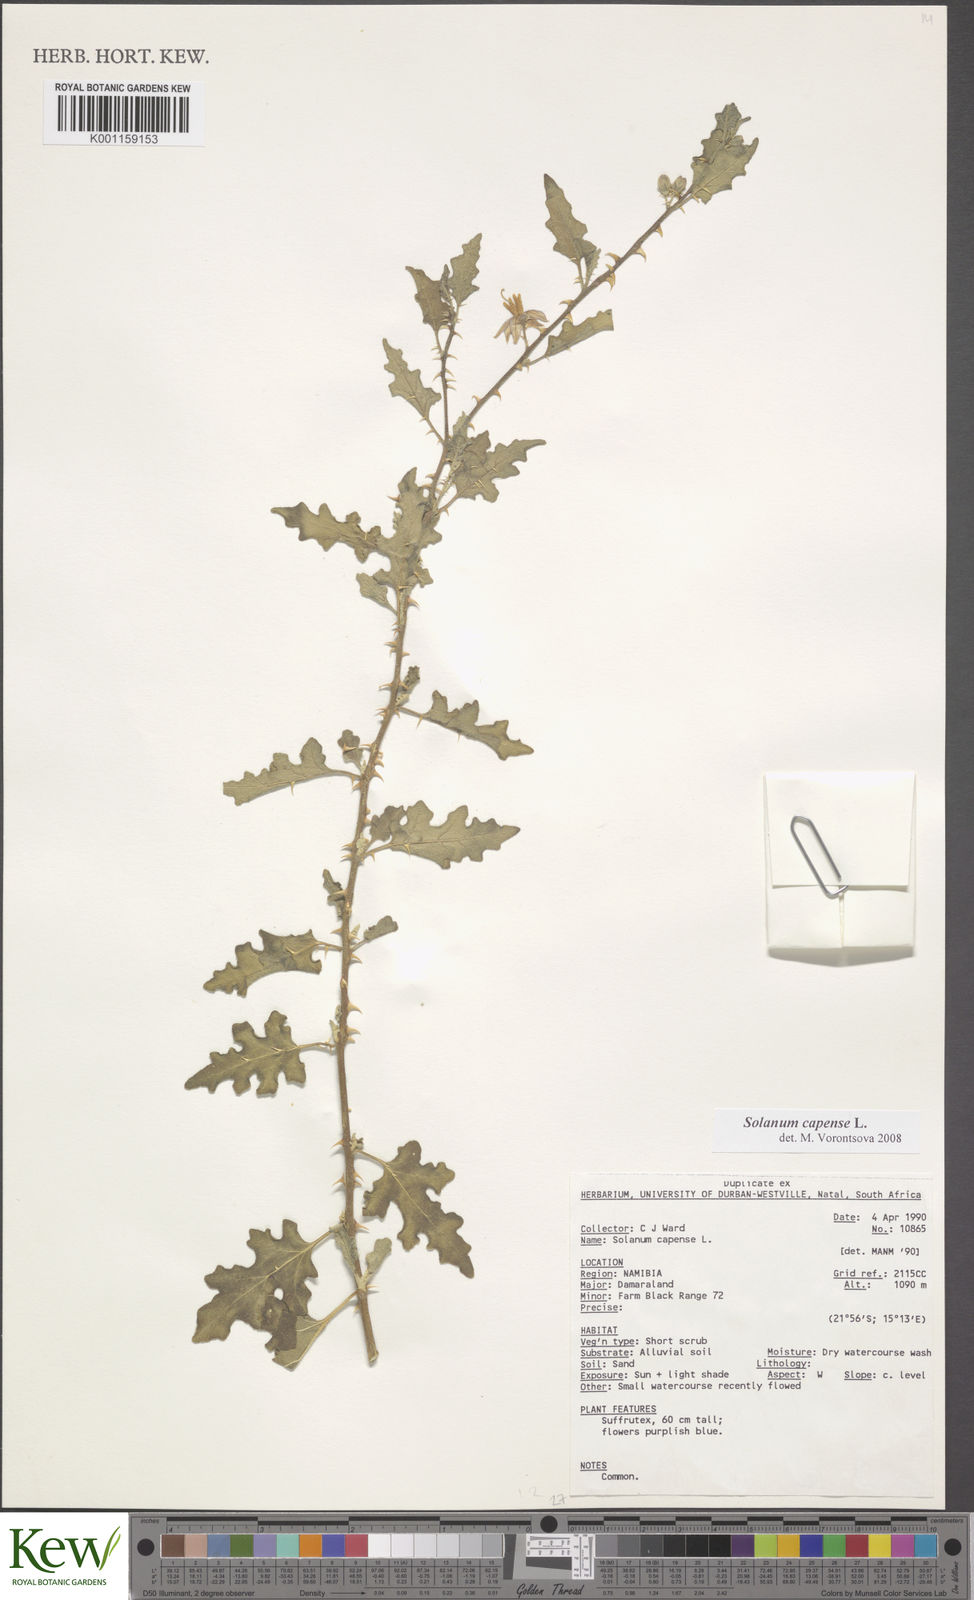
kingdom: Plantae
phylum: Tracheophyta
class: Magnoliopsida
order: Solanales
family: Solanaceae
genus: Solanum
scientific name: Solanum capense
